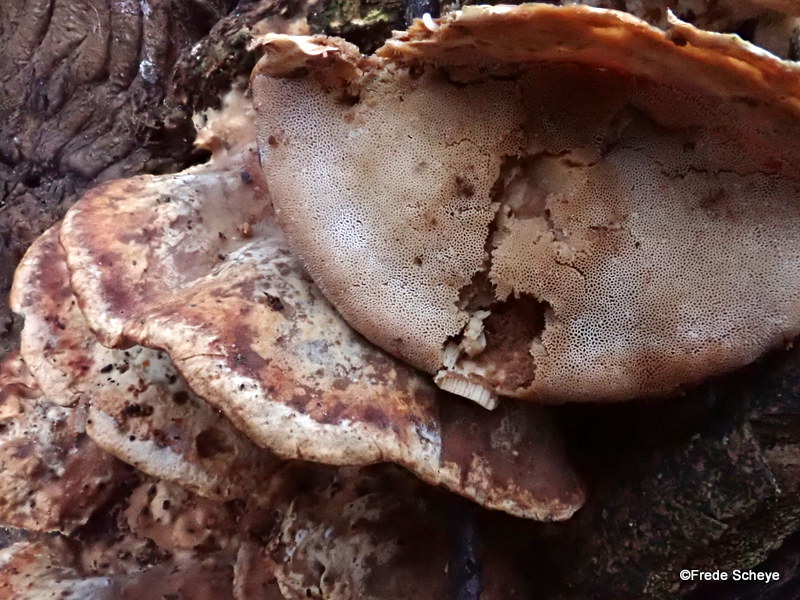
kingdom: Fungi
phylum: Basidiomycota
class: Agaricomycetes
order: Polyporales
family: Phanerochaetaceae
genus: Bjerkandera
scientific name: Bjerkandera fumosa
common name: grågul sodporesvamp
